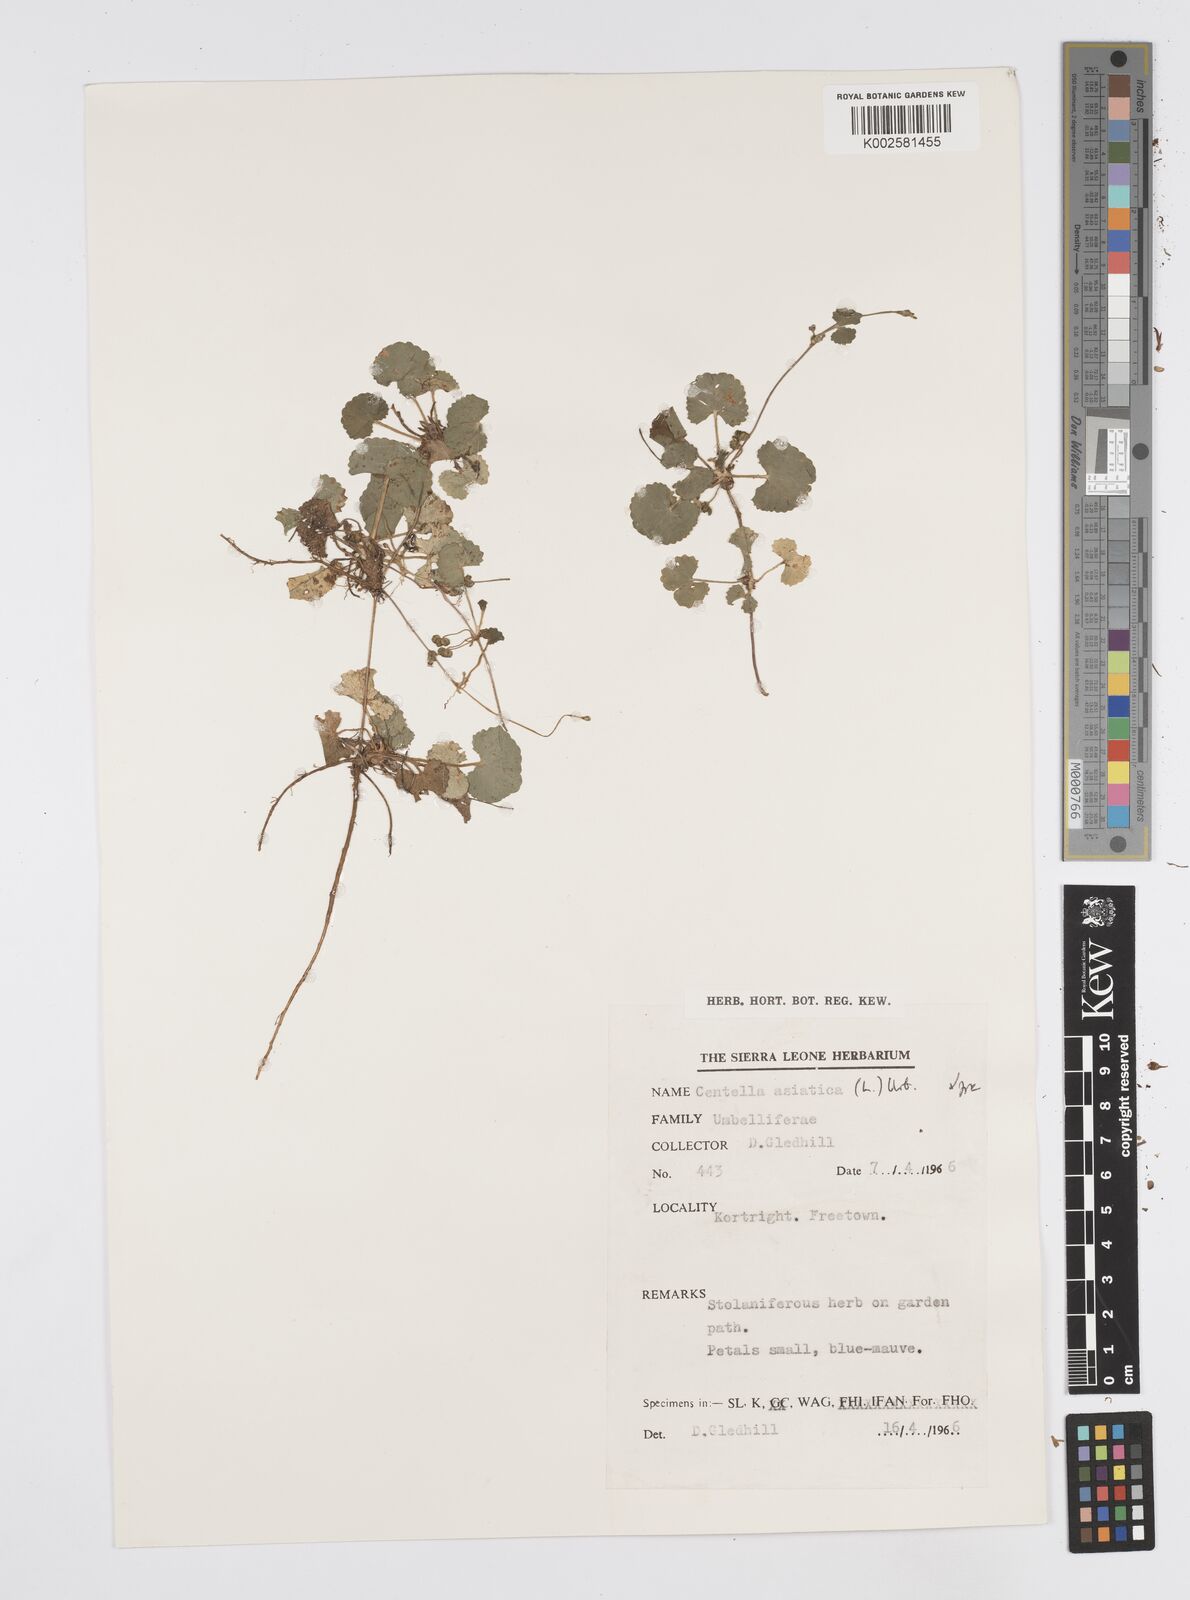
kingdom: Plantae
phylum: Tracheophyta
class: Magnoliopsida
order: Apiales
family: Apiaceae
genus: Centella
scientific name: Centella asiatica
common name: Spadeleaf
